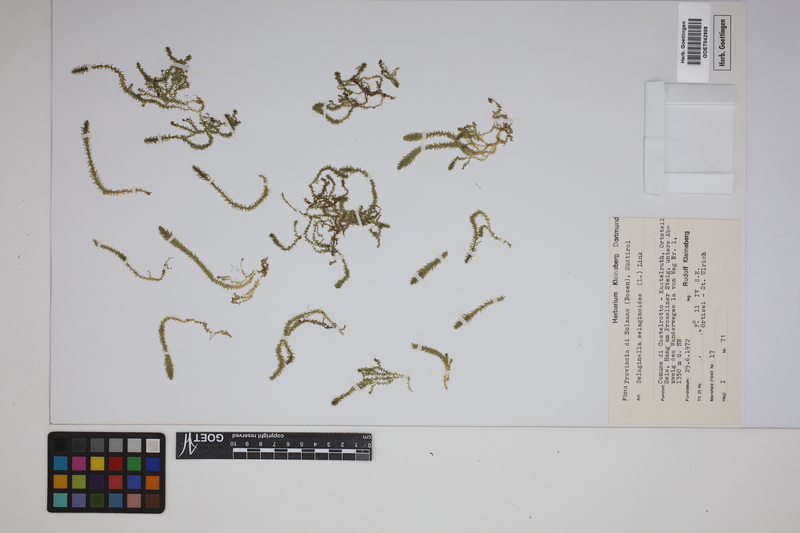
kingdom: Plantae
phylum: Tracheophyta
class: Lycopodiopsida
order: Selaginellales
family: Selaginellaceae
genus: Selaginella
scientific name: Selaginella selaginoides
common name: Prickly mountain-moss
